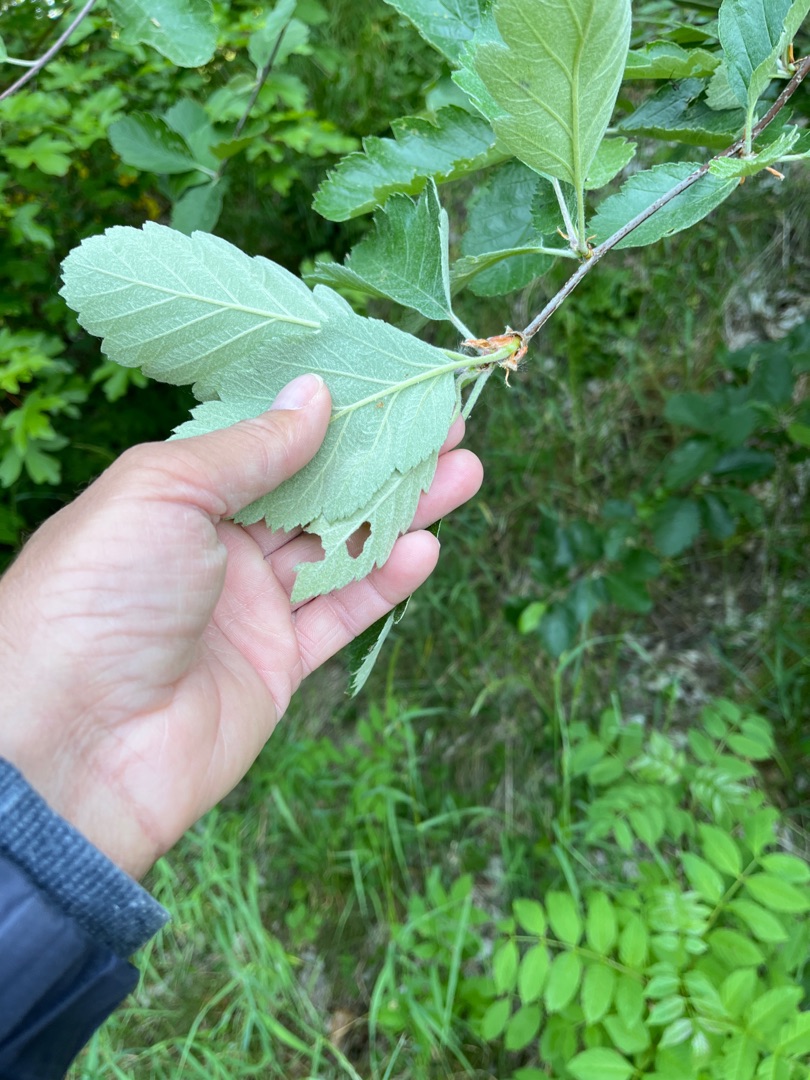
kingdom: Plantae
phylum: Tracheophyta
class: Magnoliopsida
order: Rosales
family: Rosaceae
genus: Scandosorbus
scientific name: Scandosorbus intermedia
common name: Selje-røn
